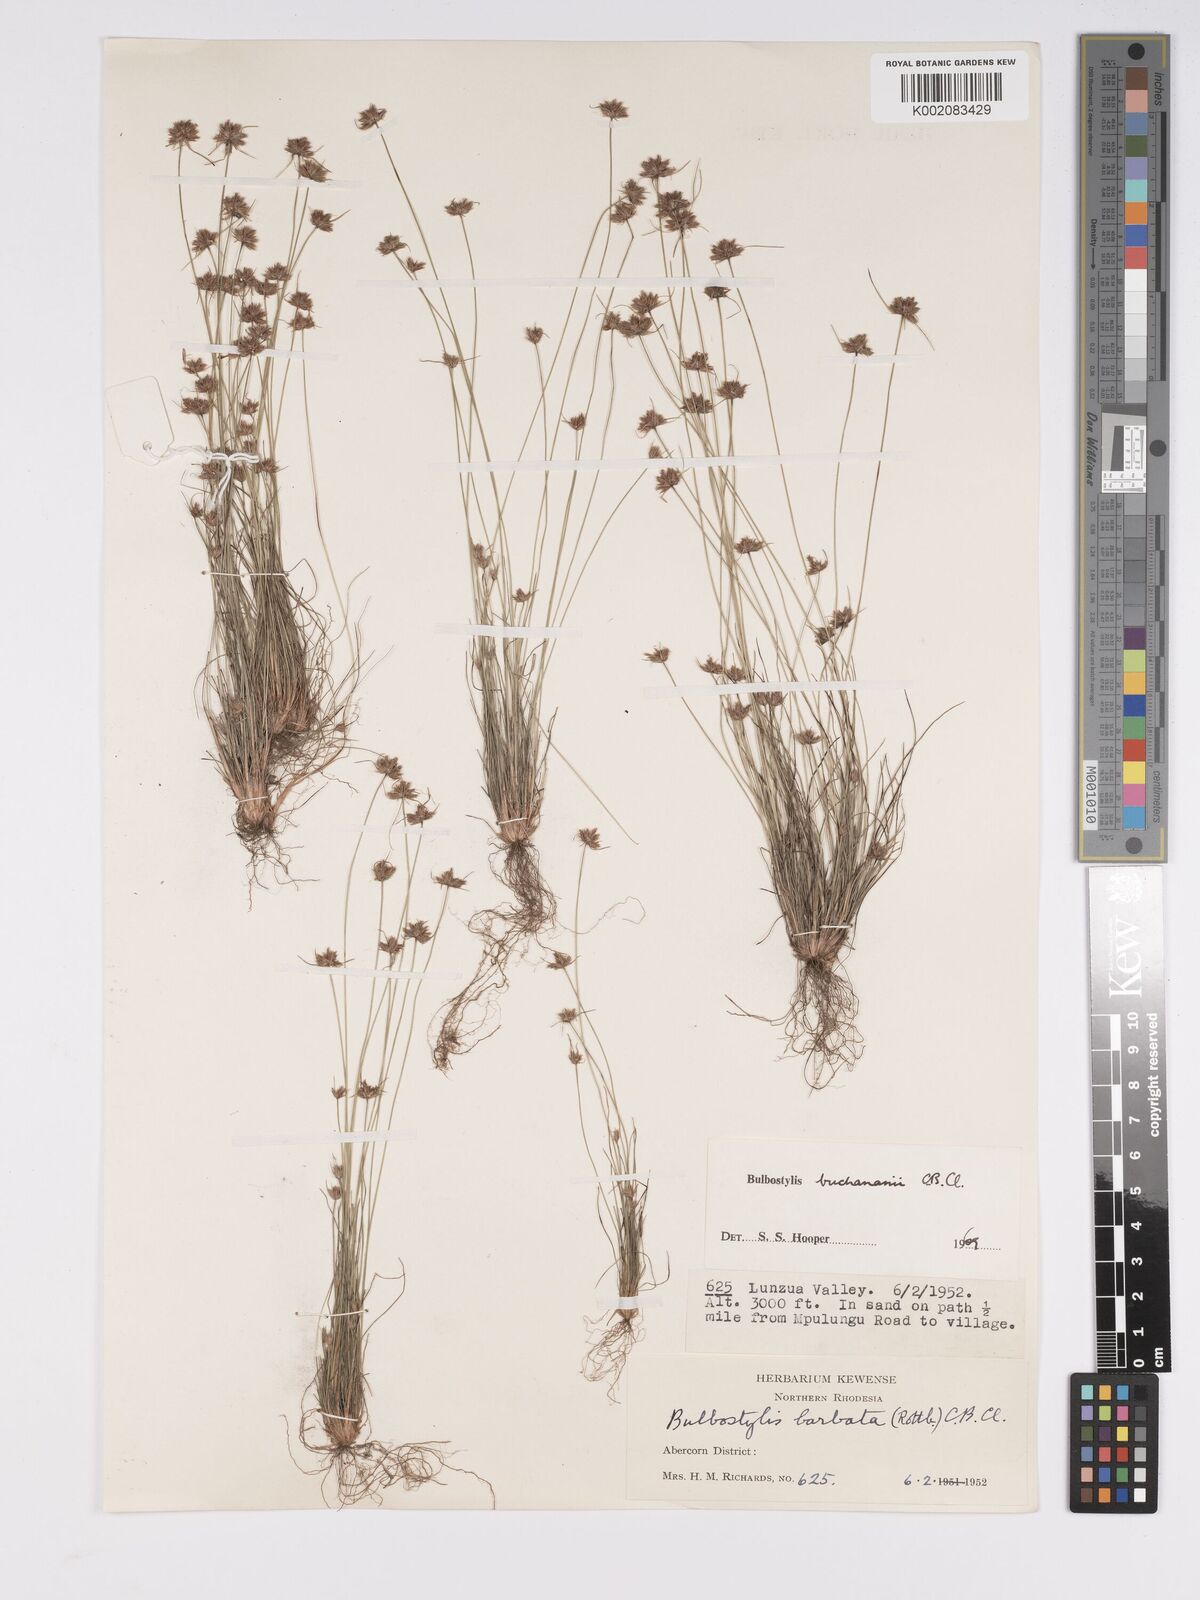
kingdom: Plantae
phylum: Tracheophyta
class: Liliopsida
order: Poales
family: Cyperaceae
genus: Bulbostylis
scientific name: Bulbostylis buchananii
